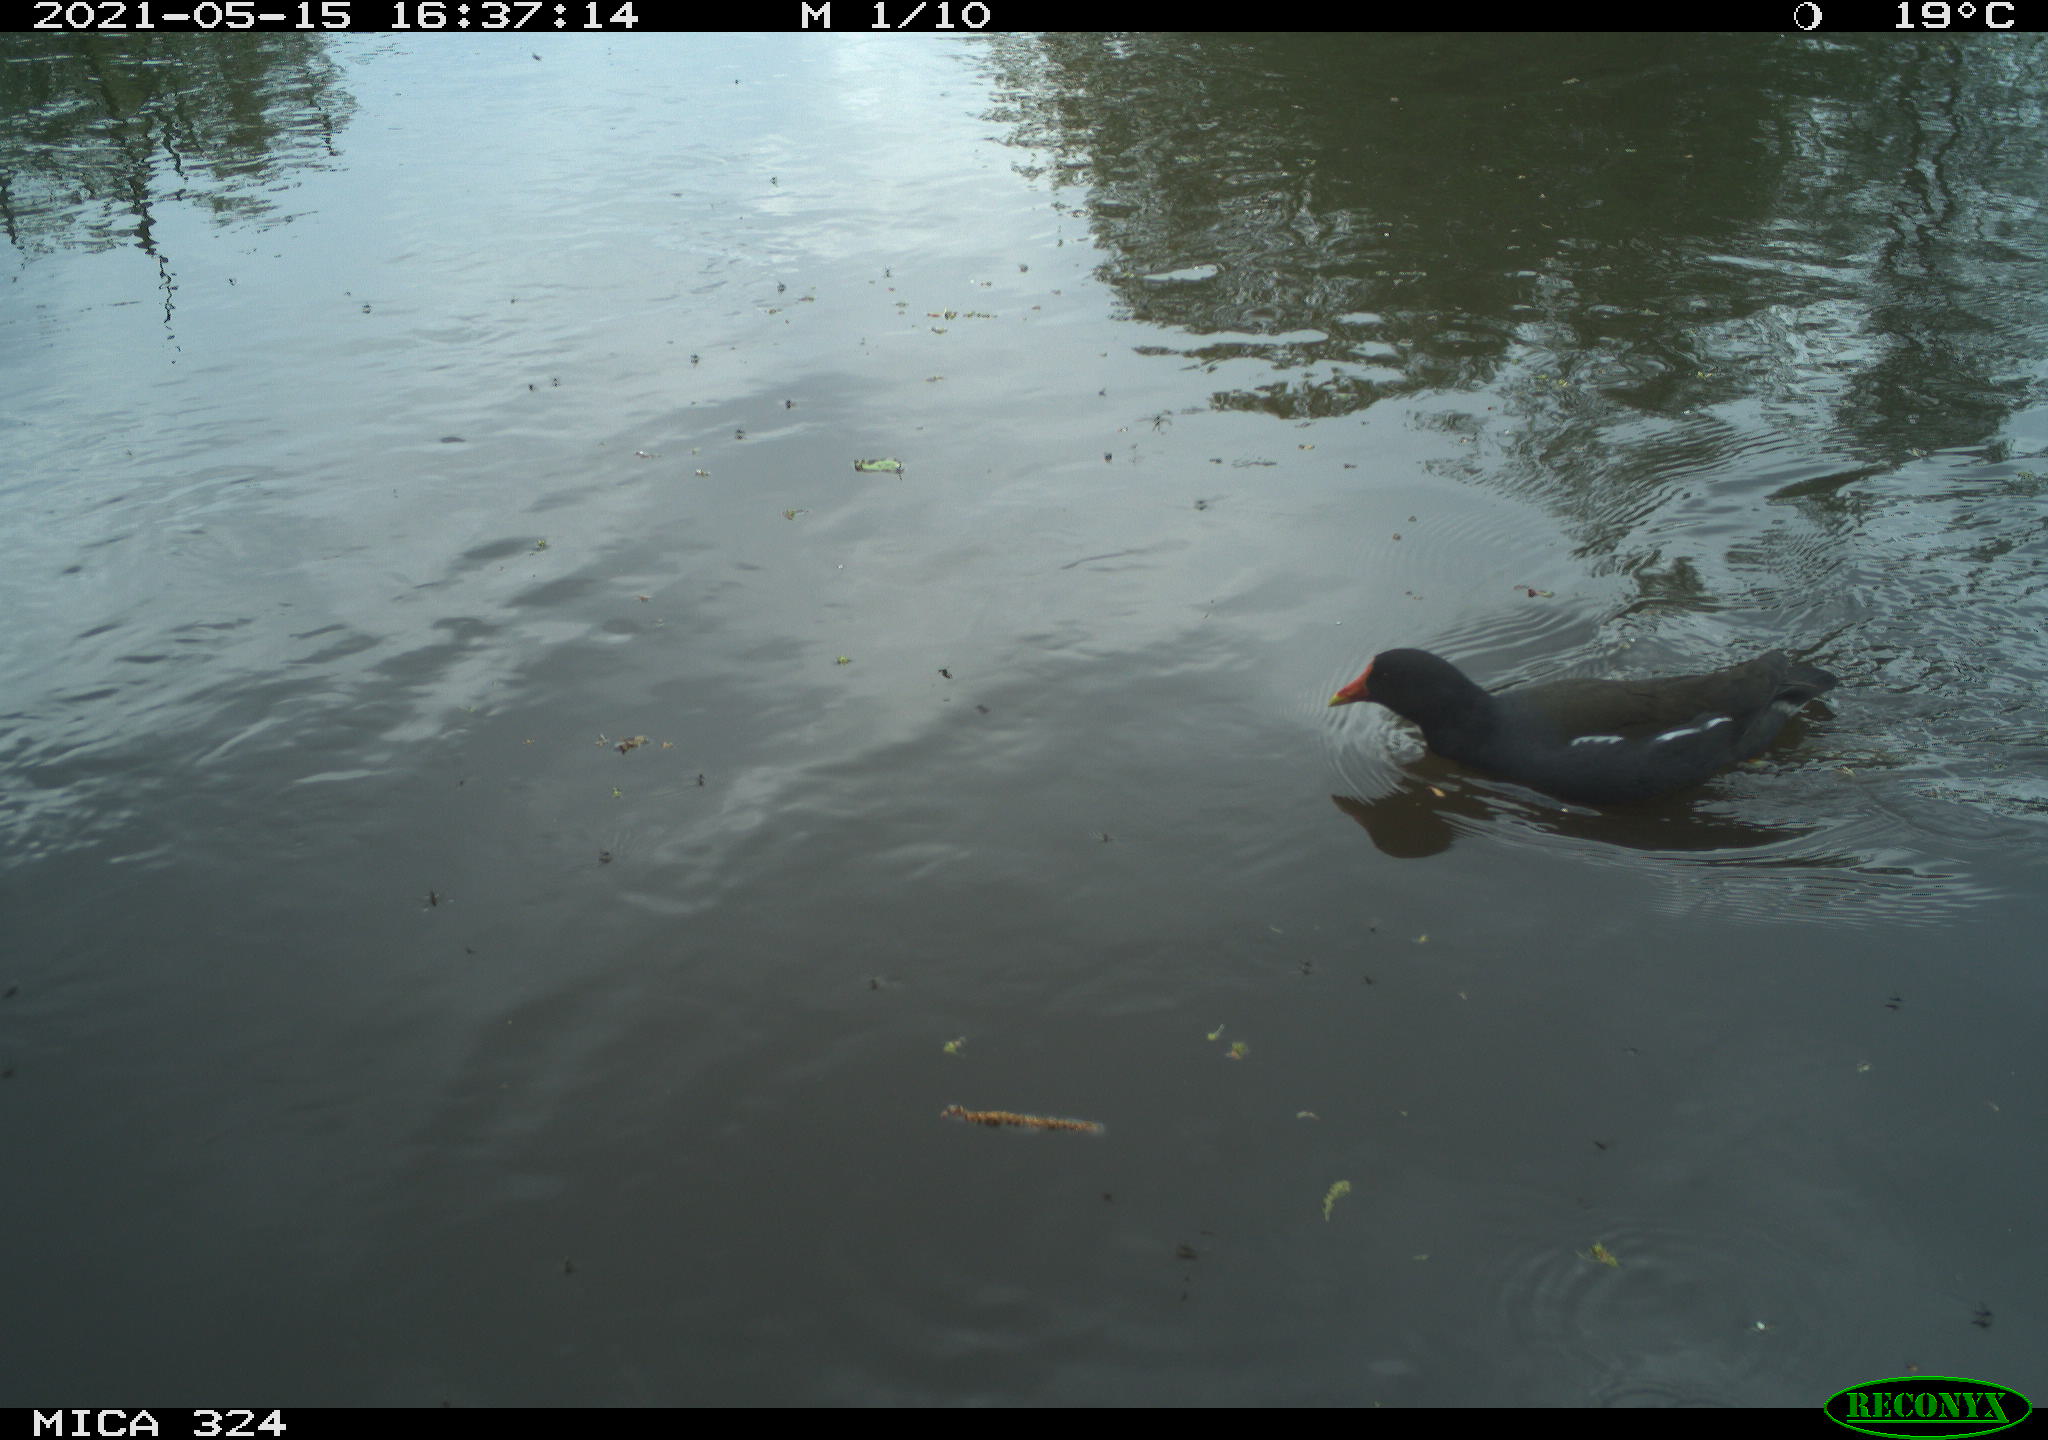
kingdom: Animalia
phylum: Chordata
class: Aves
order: Gruiformes
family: Rallidae
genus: Gallinula
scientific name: Gallinula chloropus
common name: Common moorhen
